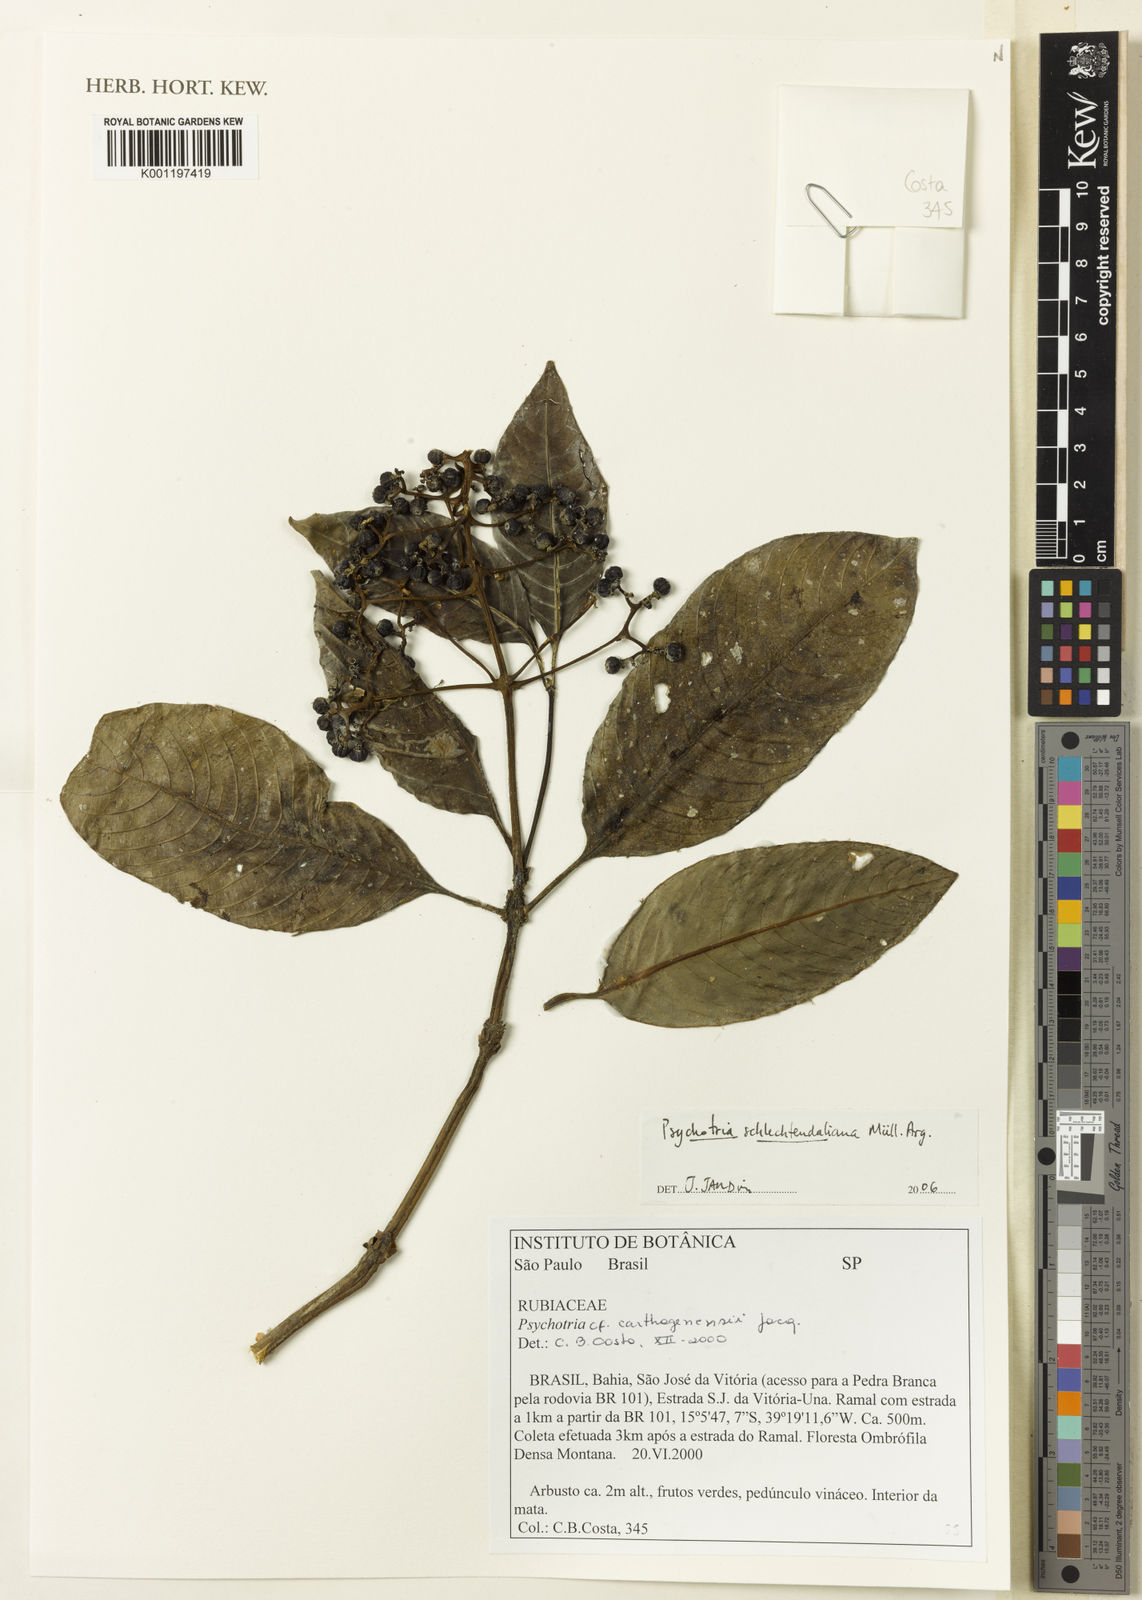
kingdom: Plantae
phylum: Tracheophyta
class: Magnoliopsida
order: Gentianales
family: Rubiaceae
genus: Psychotria
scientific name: Psychotria
